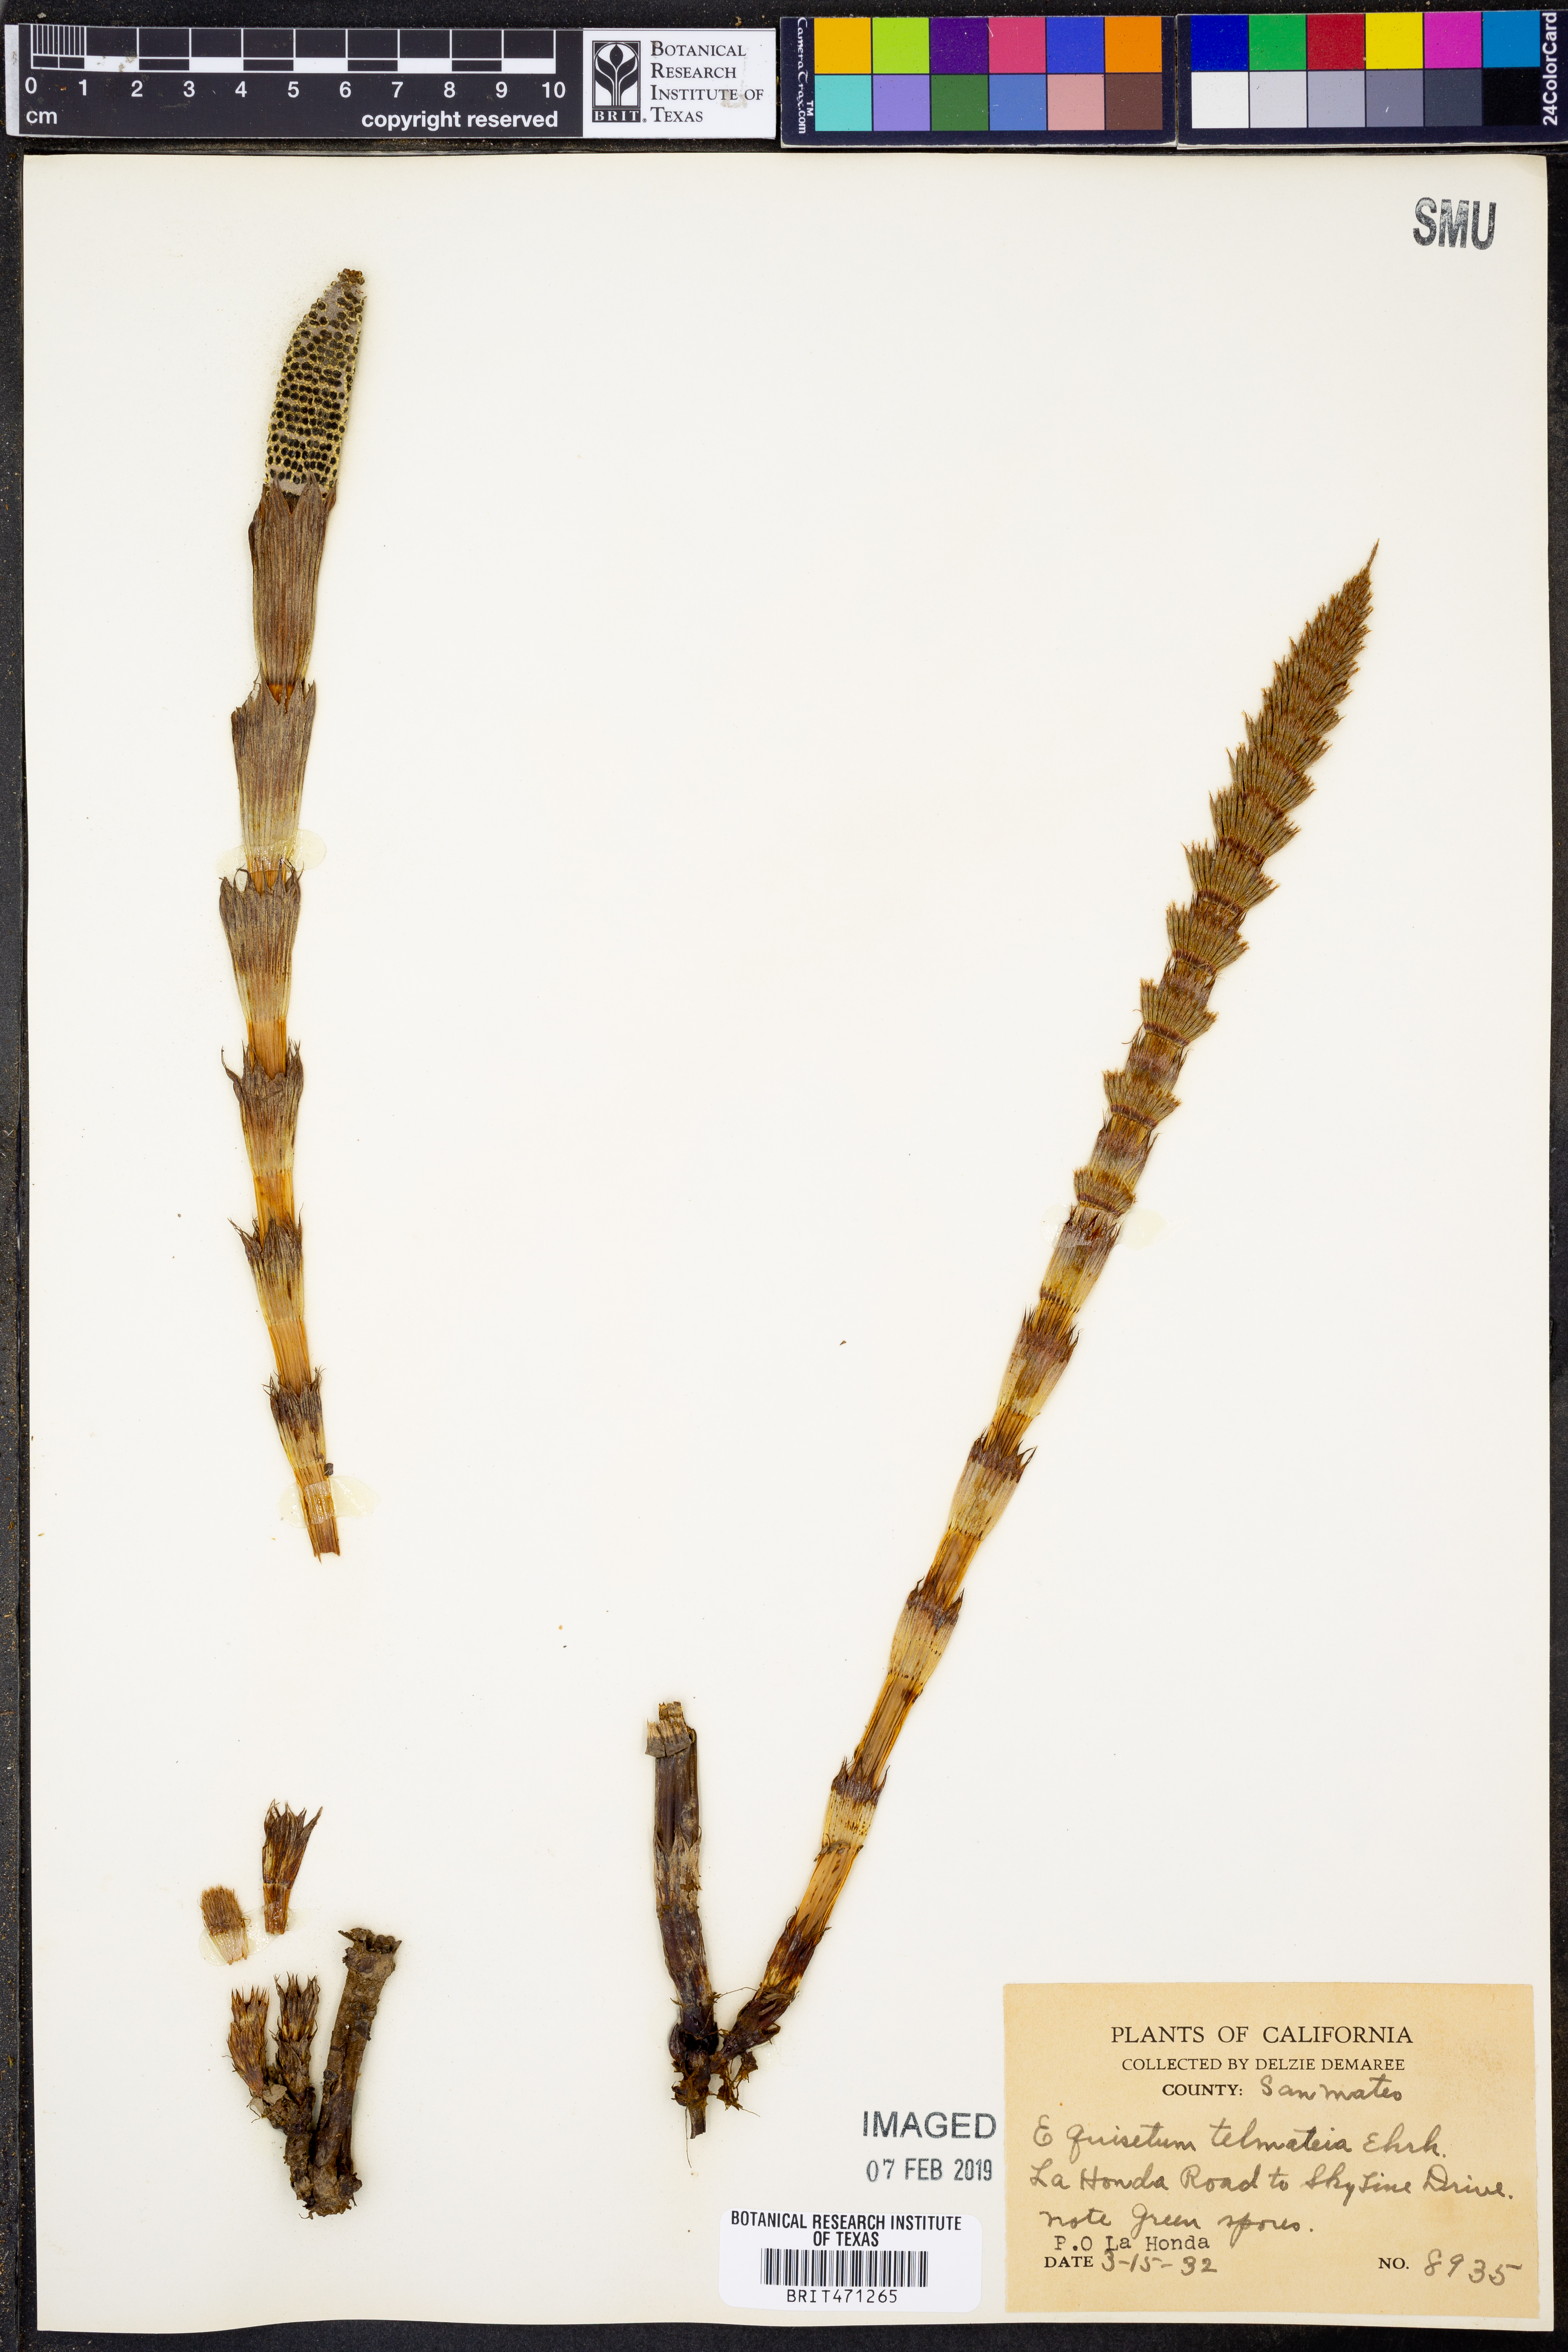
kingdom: Plantae
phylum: Tracheophyta
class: Polypodiopsida
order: Equisetales
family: Equisetaceae
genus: Equisetum
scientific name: Equisetum braunii
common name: Braun's horsetail
